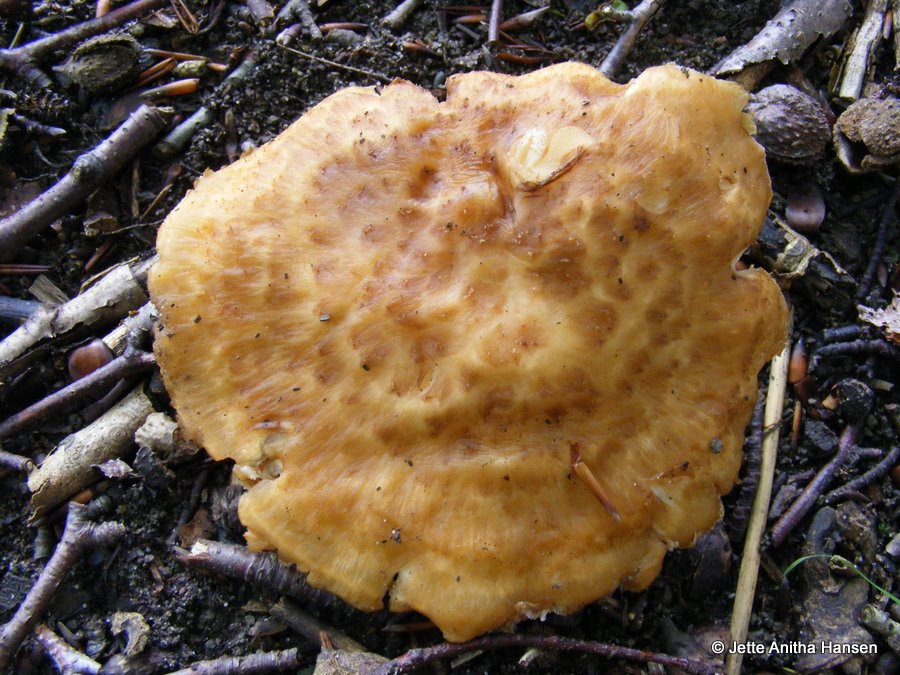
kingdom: Fungi
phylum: Basidiomycota
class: Agaricomycetes
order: Polyporales
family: Polyporaceae
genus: Polyporus
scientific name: Polyporus tuberaster
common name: knoldet stilkporesvamp
